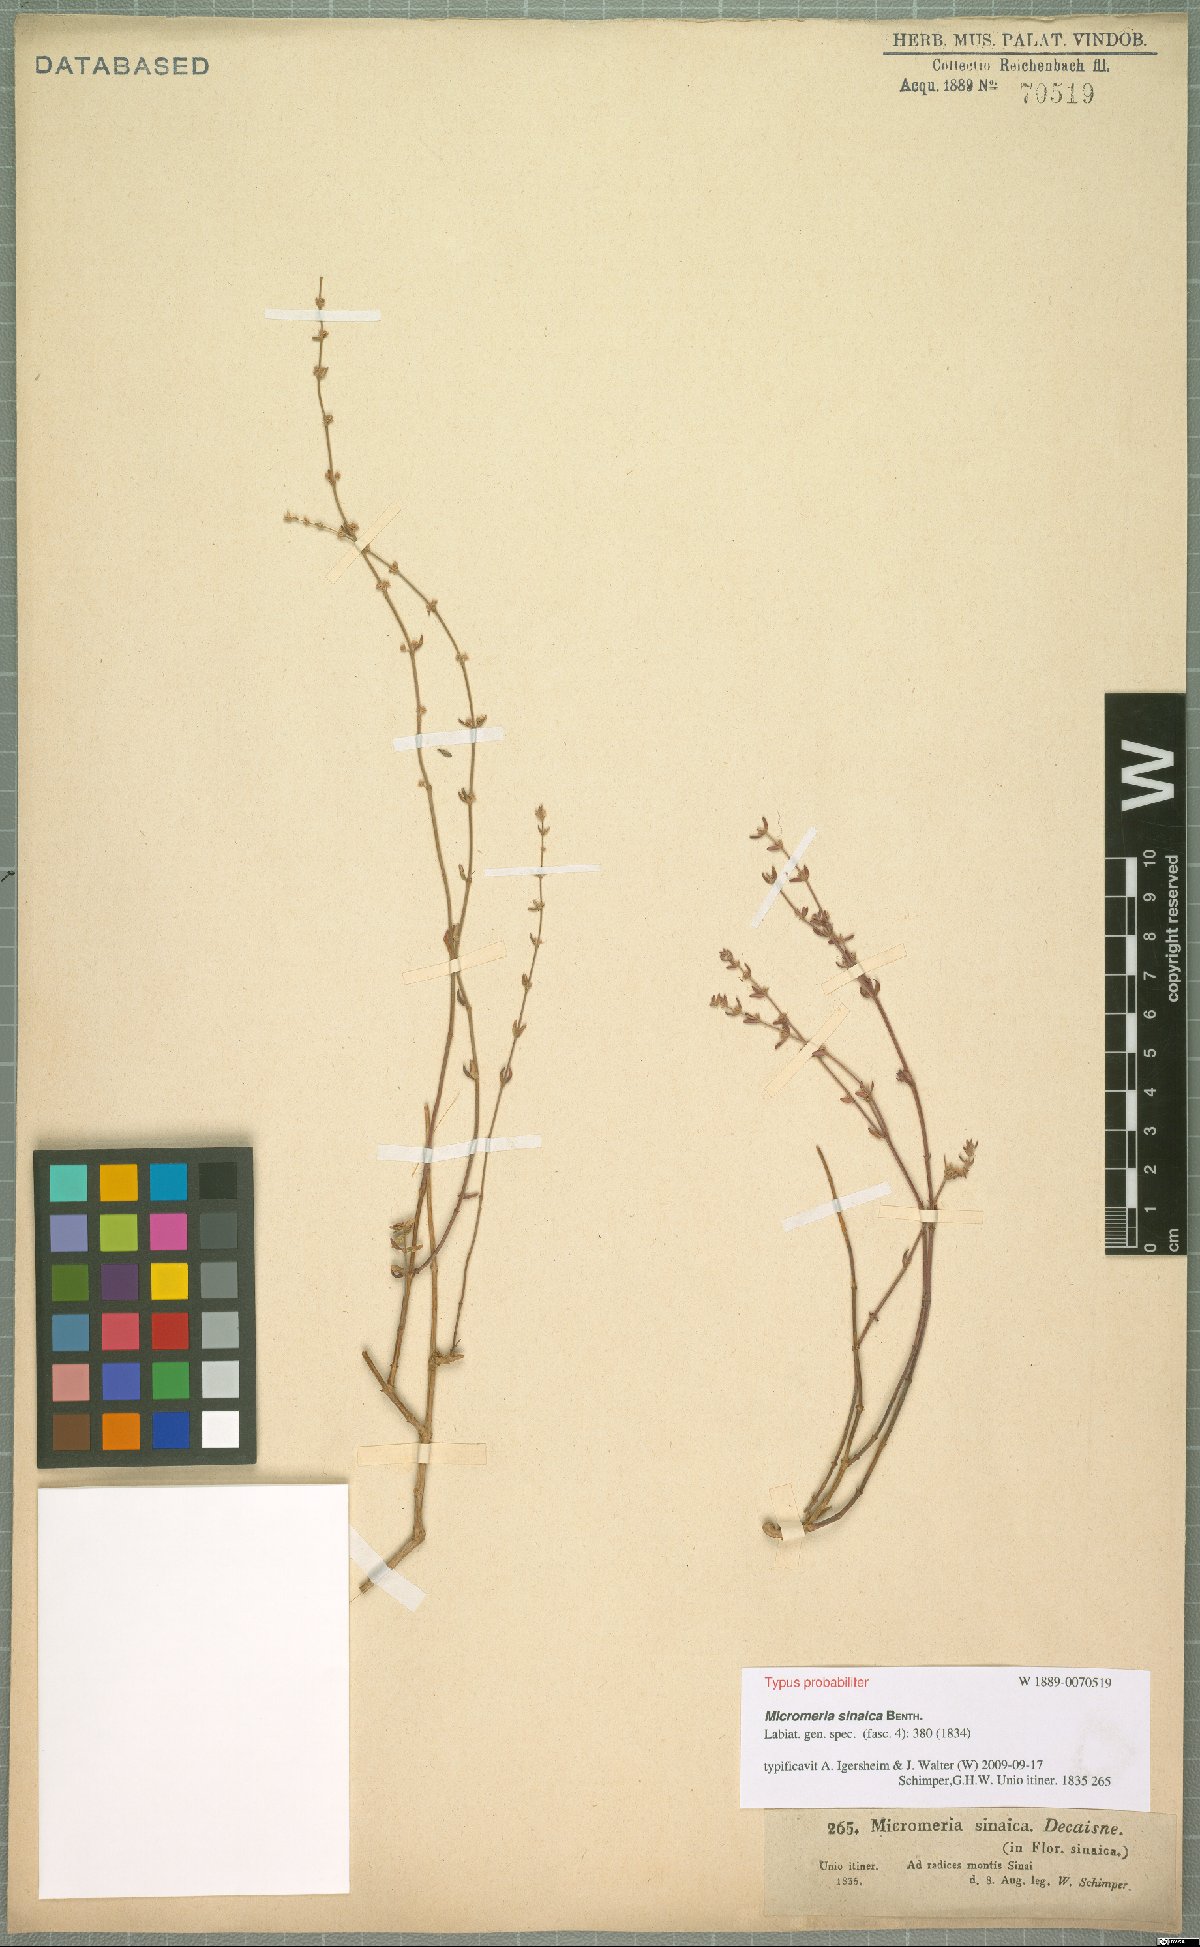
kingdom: Plantae
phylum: Tracheophyta
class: Magnoliopsida
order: Lamiales
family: Lamiaceae
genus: Micromeria
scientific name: Micromeria sinaica
